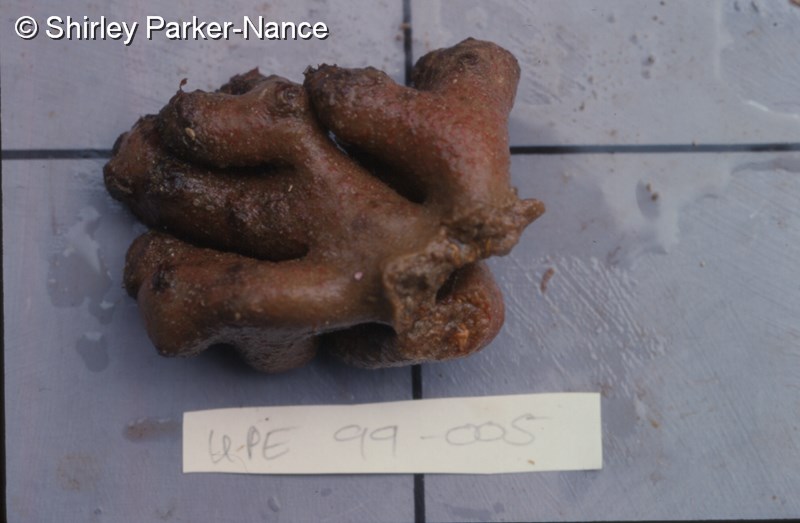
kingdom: Animalia
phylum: Chordata
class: Ascidiacea
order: Aplousobranchia
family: Polyclinidae
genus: Aplidium
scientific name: Aplidium
